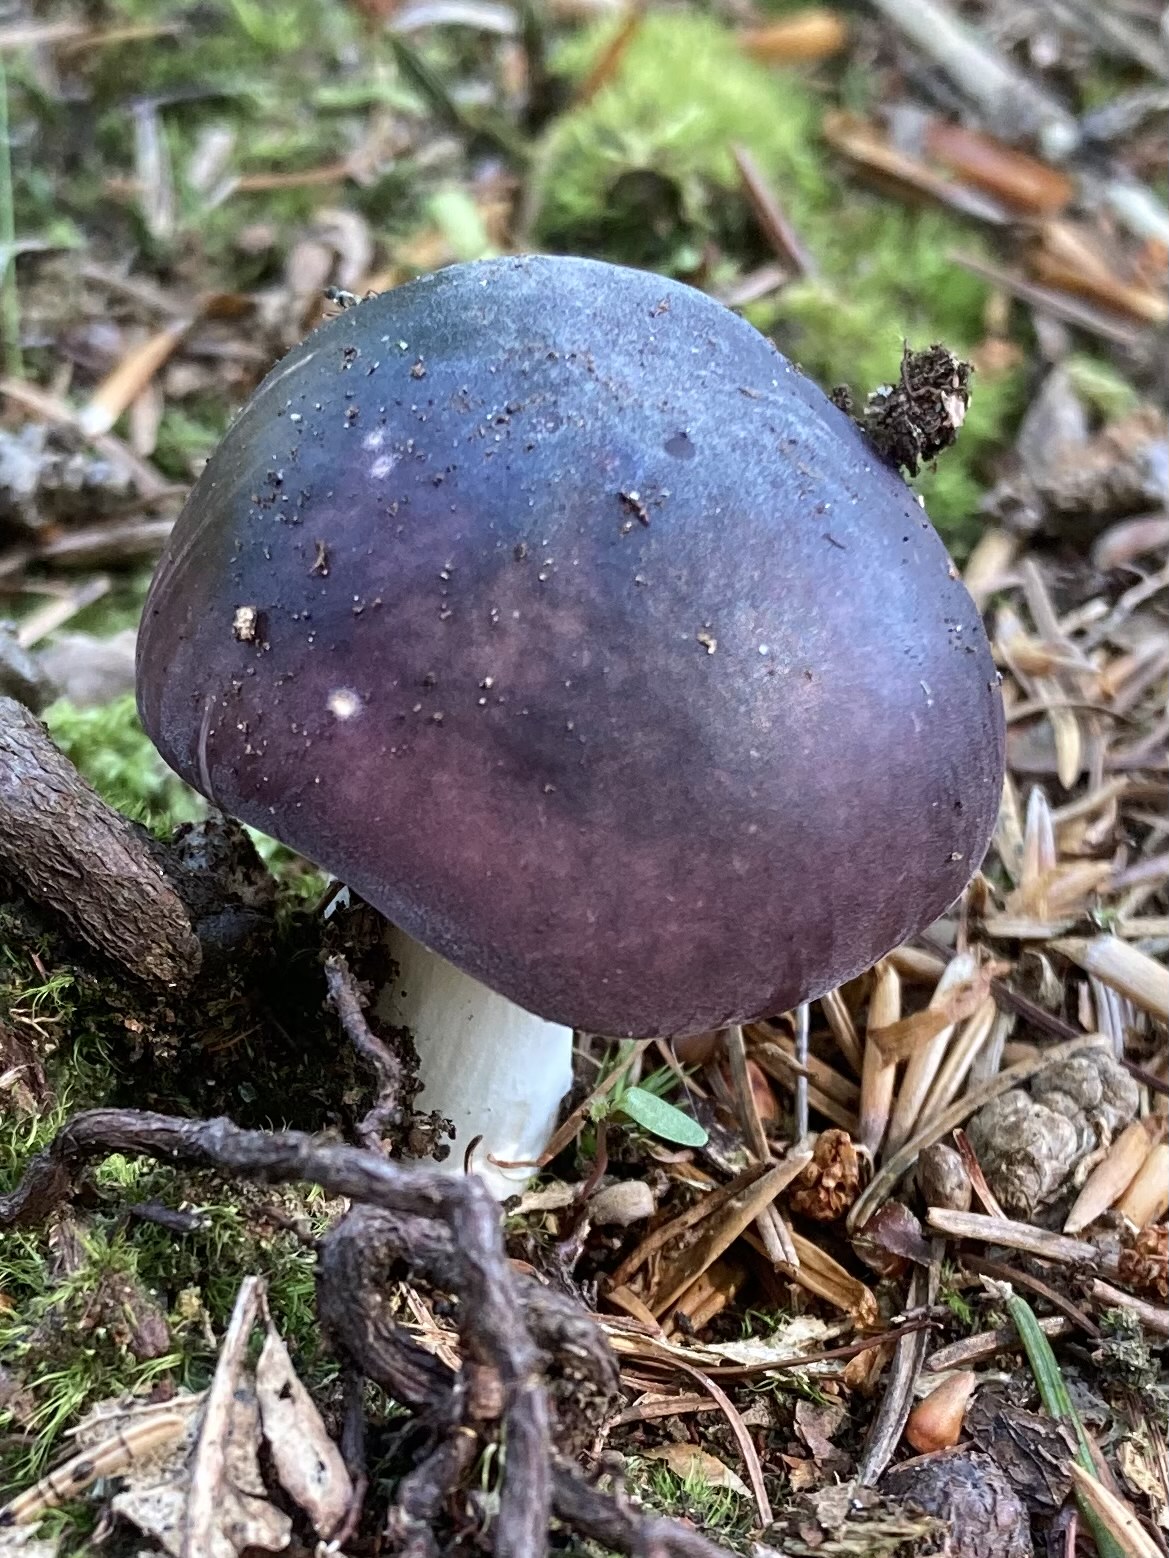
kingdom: Fungi
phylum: Basidiomycota
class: Agaricomycetes
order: Russulales
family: Russulaceae
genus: Russula
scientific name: Russula
